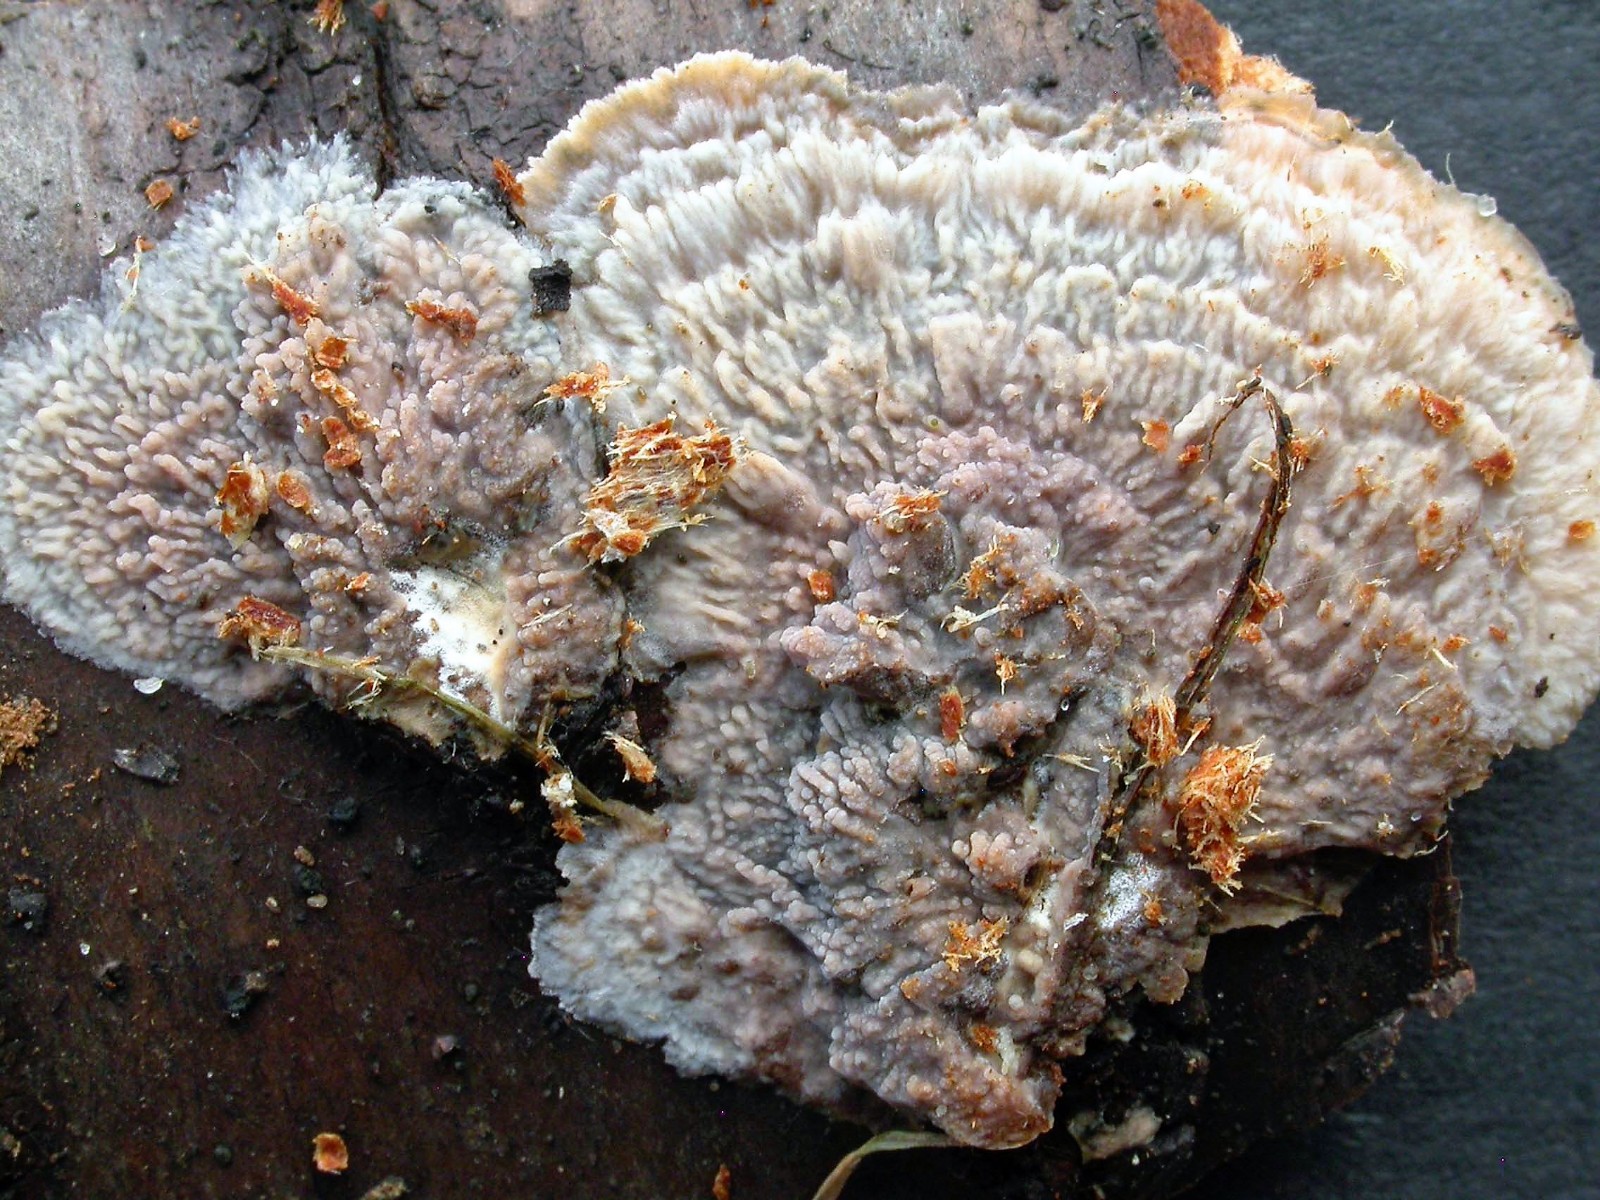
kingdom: Fungi
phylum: Basidiomycota
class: Agaricomycetes
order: Polyporales
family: Meruliaceae
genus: Phlebia
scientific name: Phlebia radiata
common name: stråle-åresvamp
